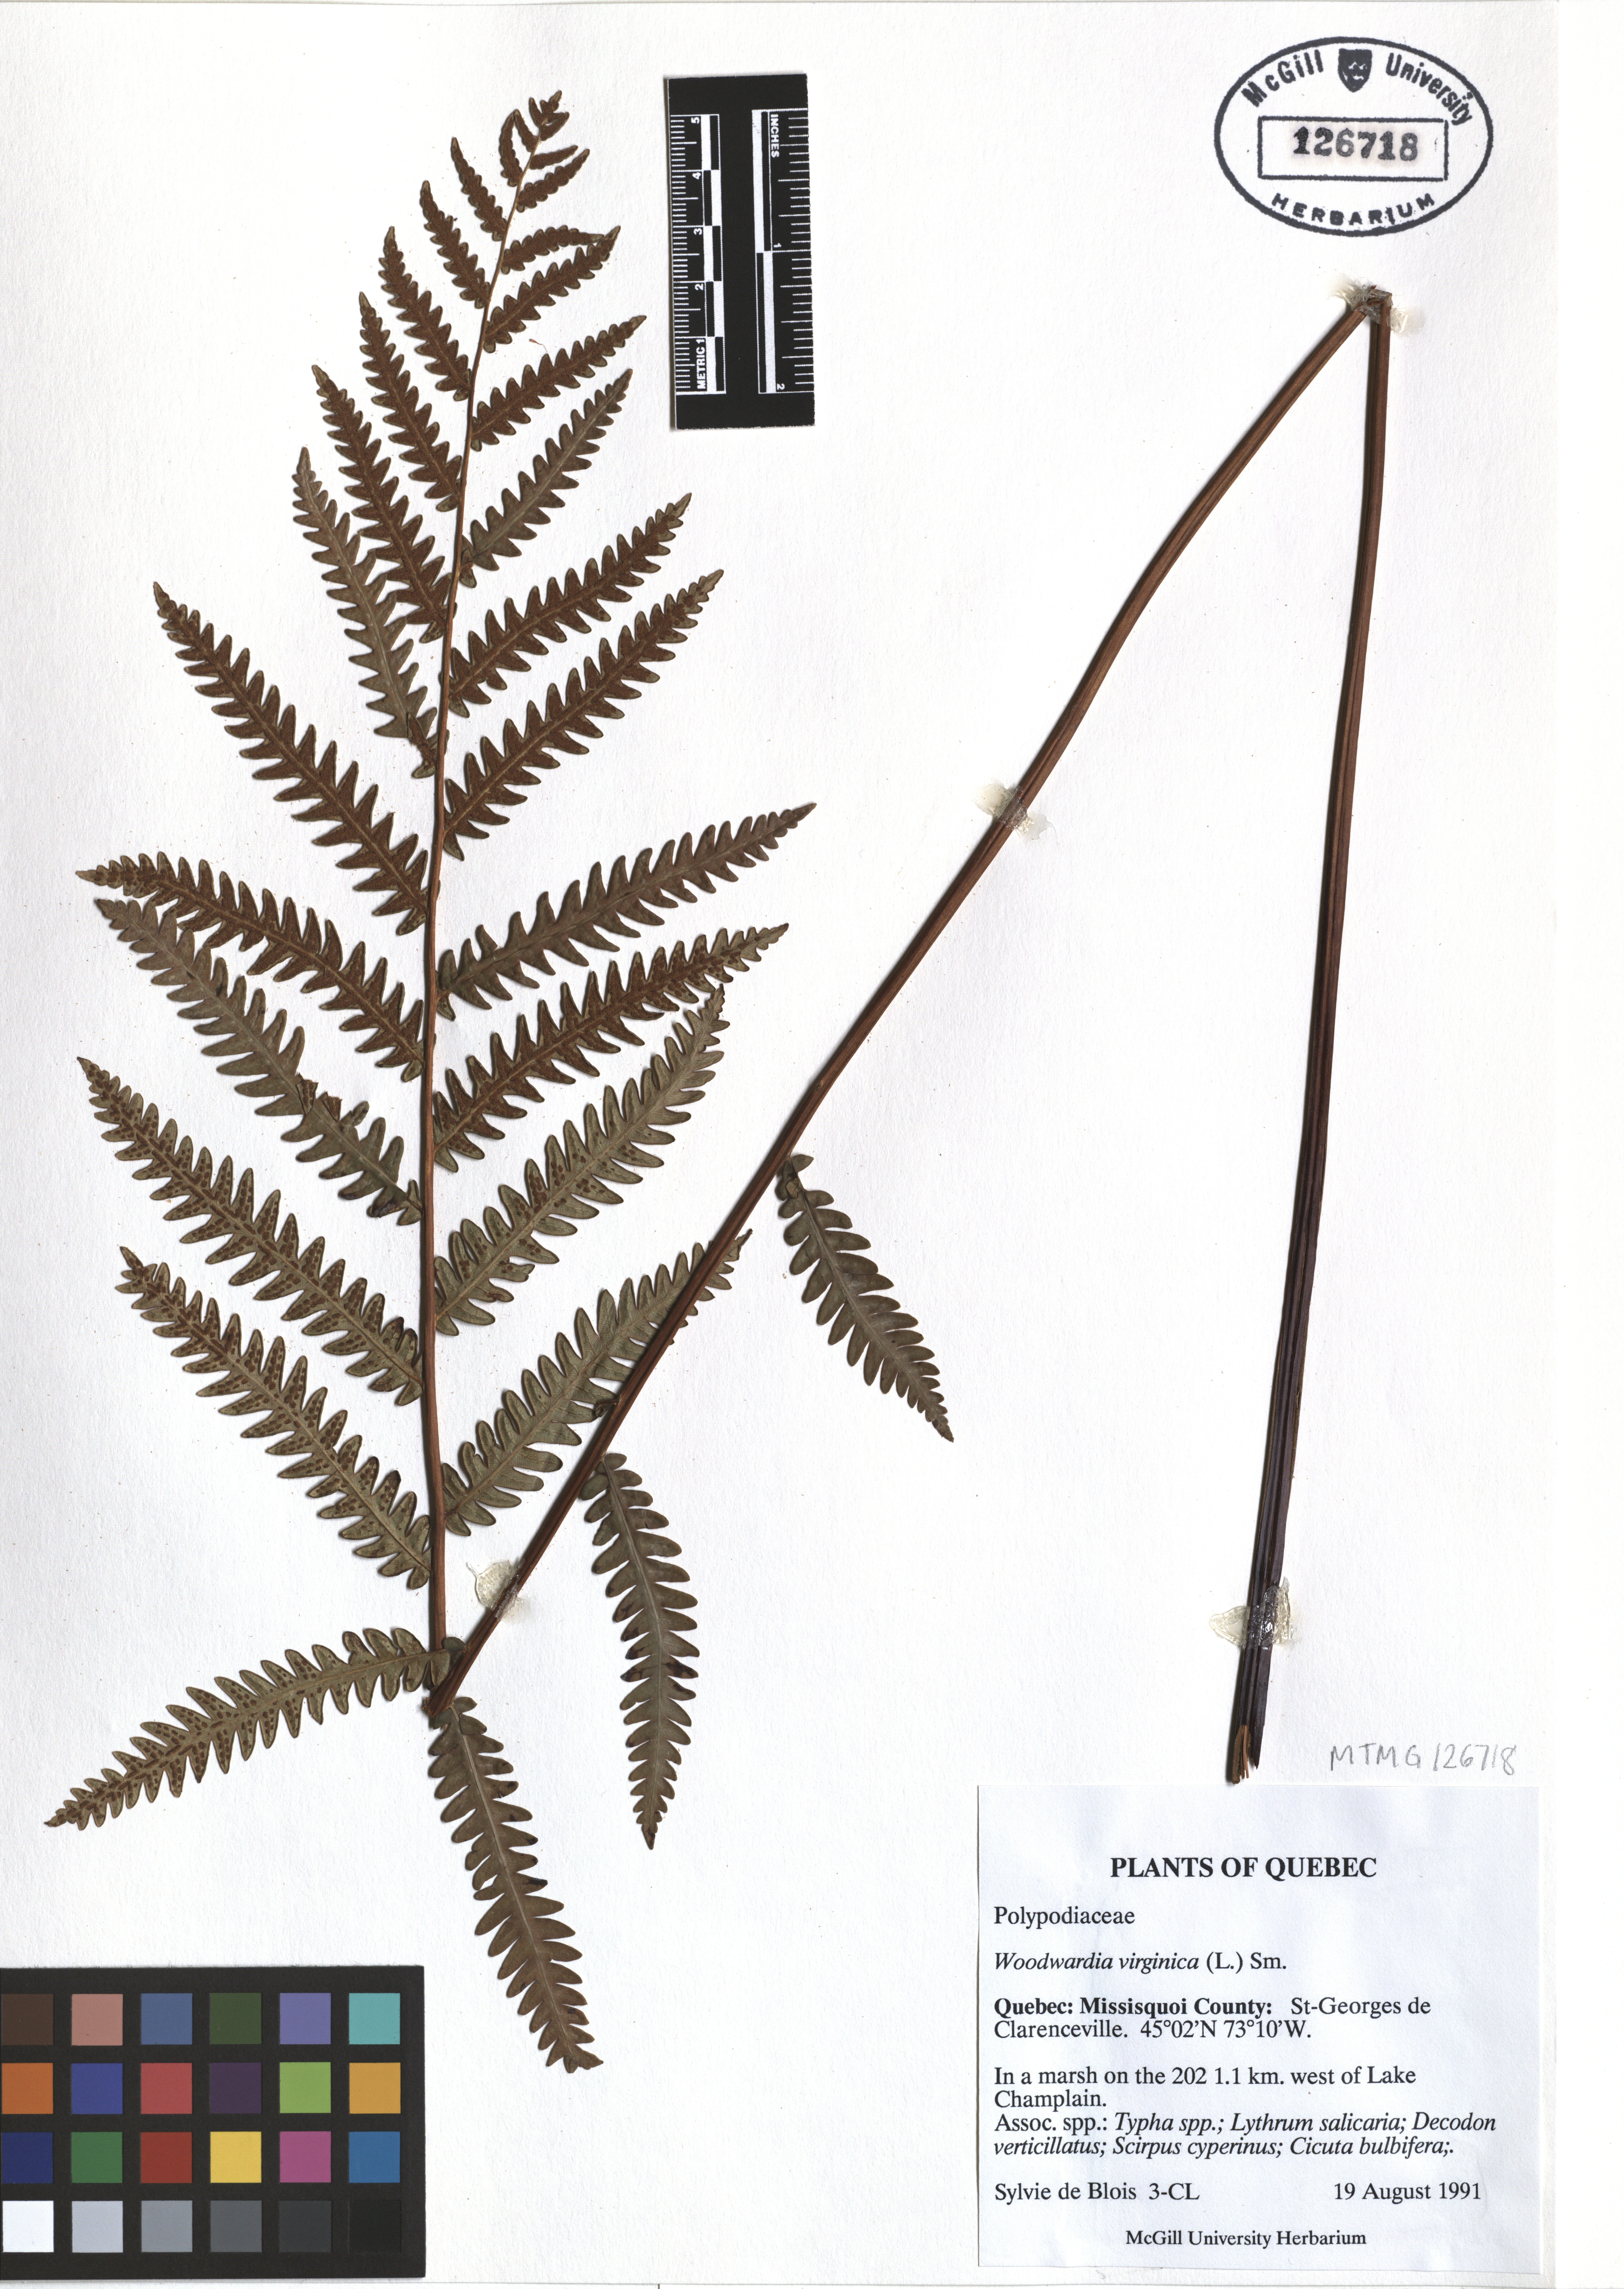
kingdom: Plantae
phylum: Tracheophyta
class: Polypodiopsida
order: Polypodiales
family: Blechnaceae
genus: Anchistea
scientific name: Anchistea virginica
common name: Virginia chain fern
